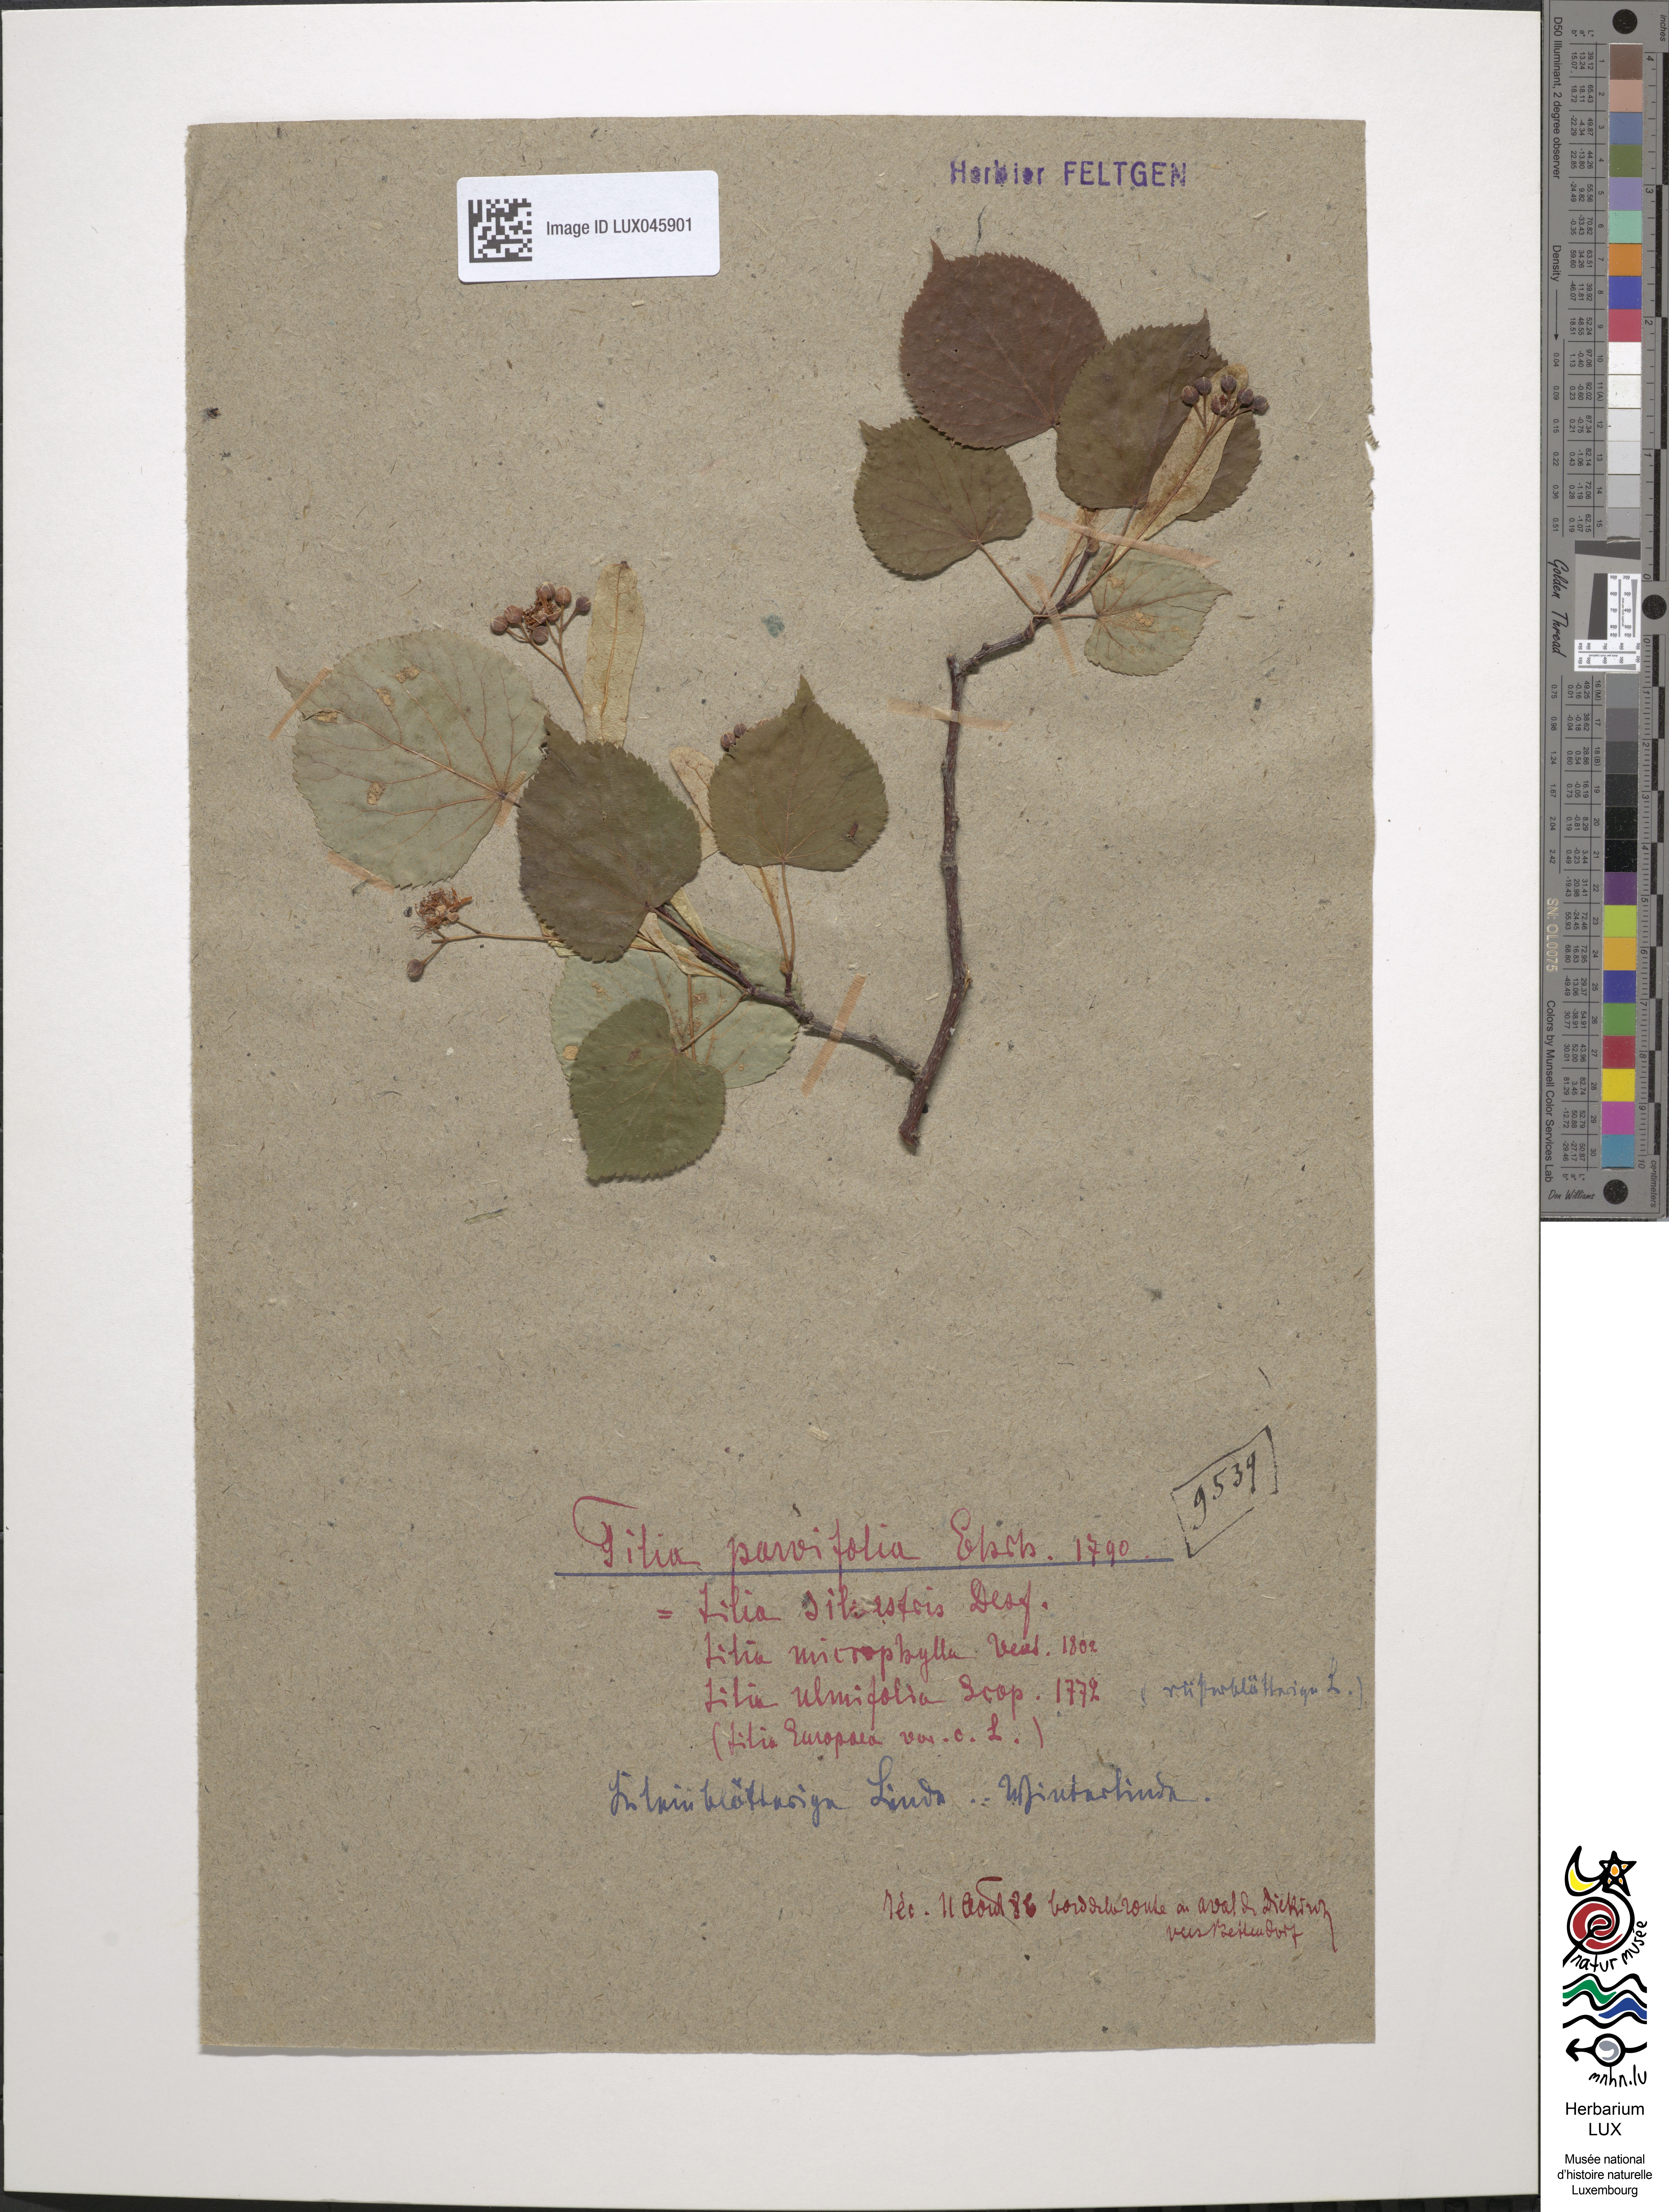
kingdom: Plantae
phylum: Tracheophyta
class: Magnoliopsida
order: Malvales
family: Malvaceae
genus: Tilia
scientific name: Tilia cordata
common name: Small-leaved lime
